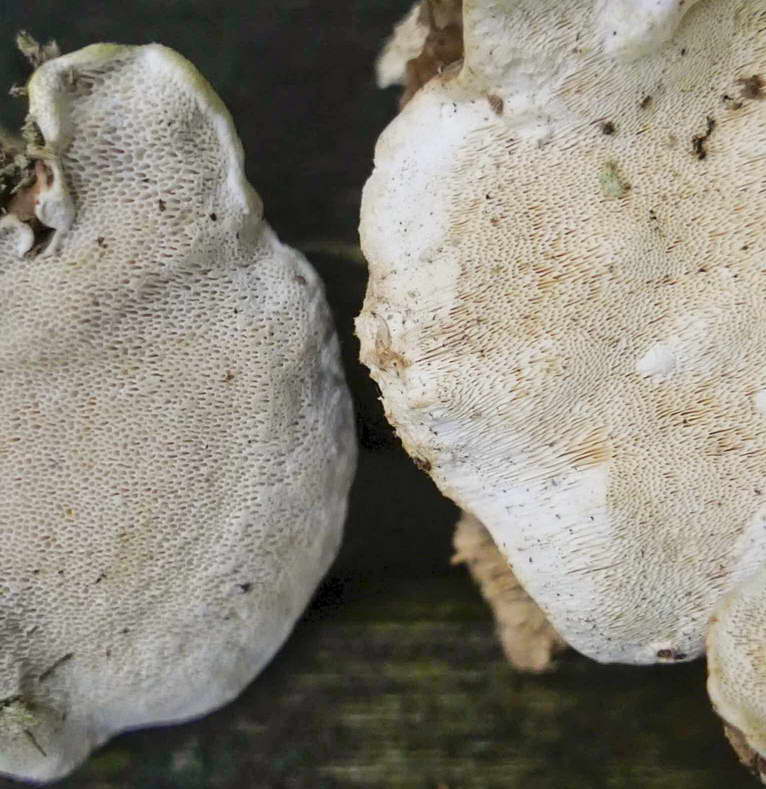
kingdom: Fungi
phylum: Basidiomycota
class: Agaricomycetes
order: Russulales
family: Bondarzewiaceae
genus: Heterobasidion
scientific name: Heterobasidion parviporum
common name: småporet rodfordærver
